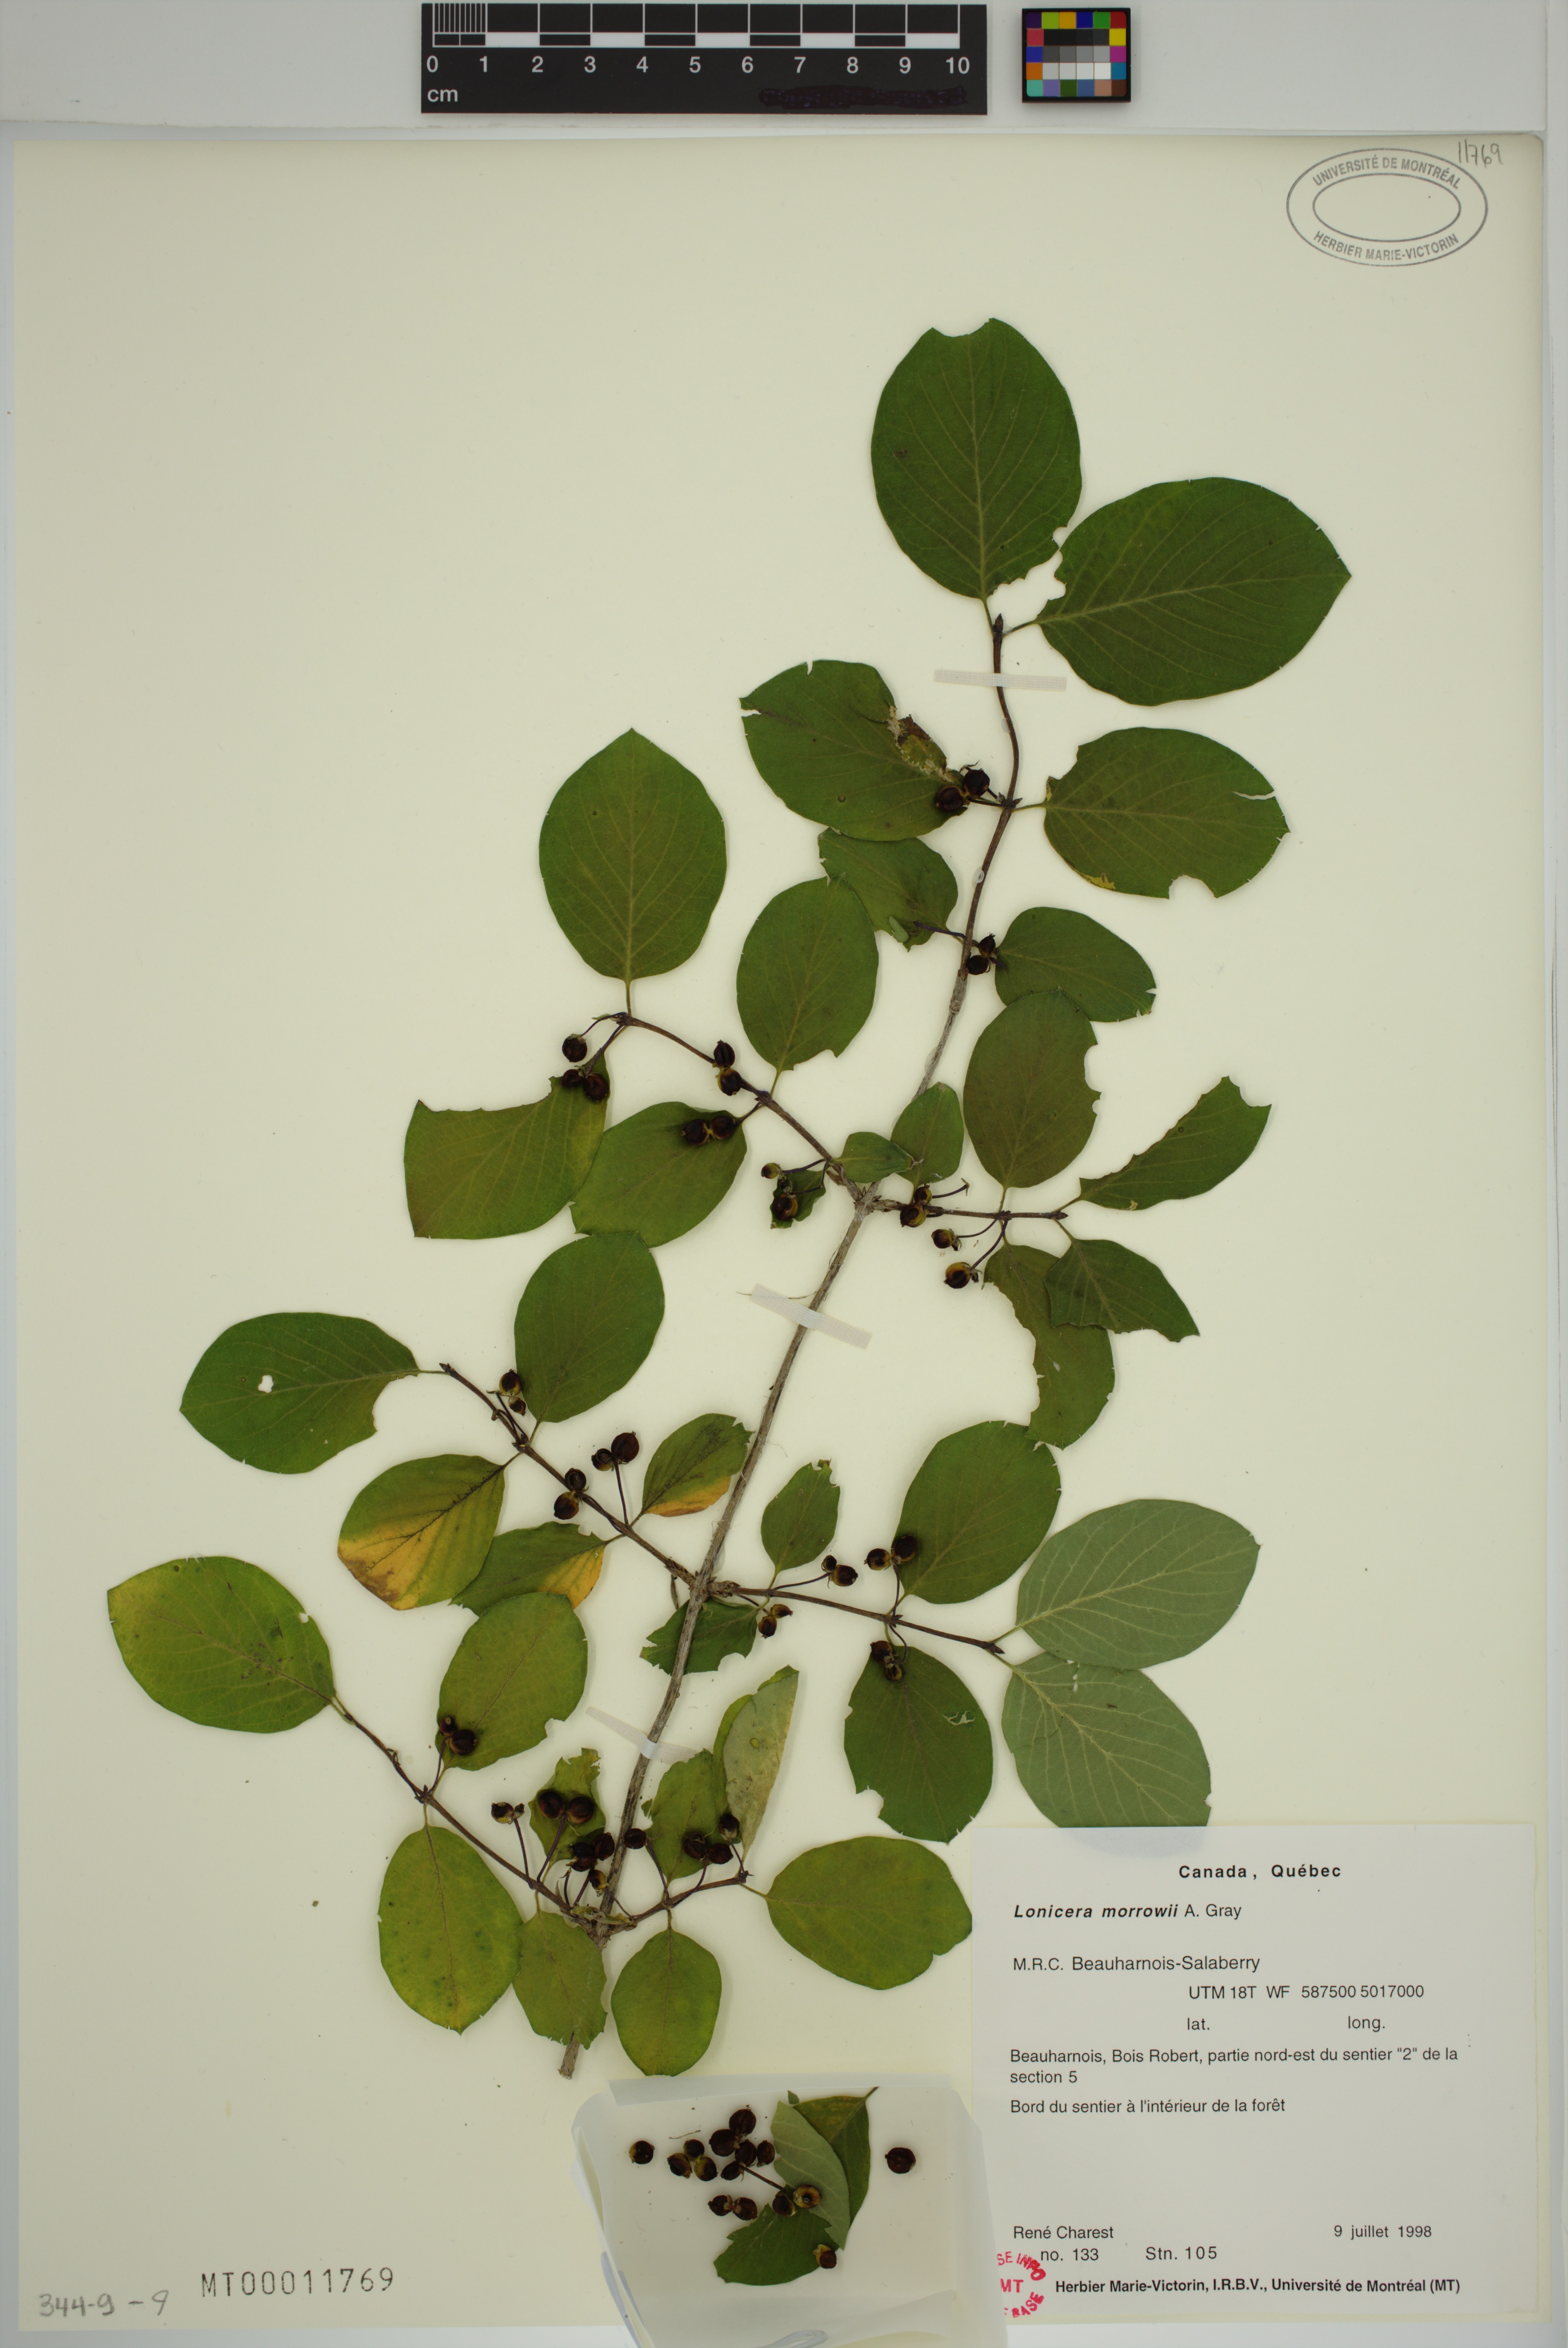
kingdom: Plantae
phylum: Tracheophyta
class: Magnoliopsida
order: Dipsacales
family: Caprifoliaceae
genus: Lonicera
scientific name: Lonicera tatarica
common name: Tatarian honeysuckle
